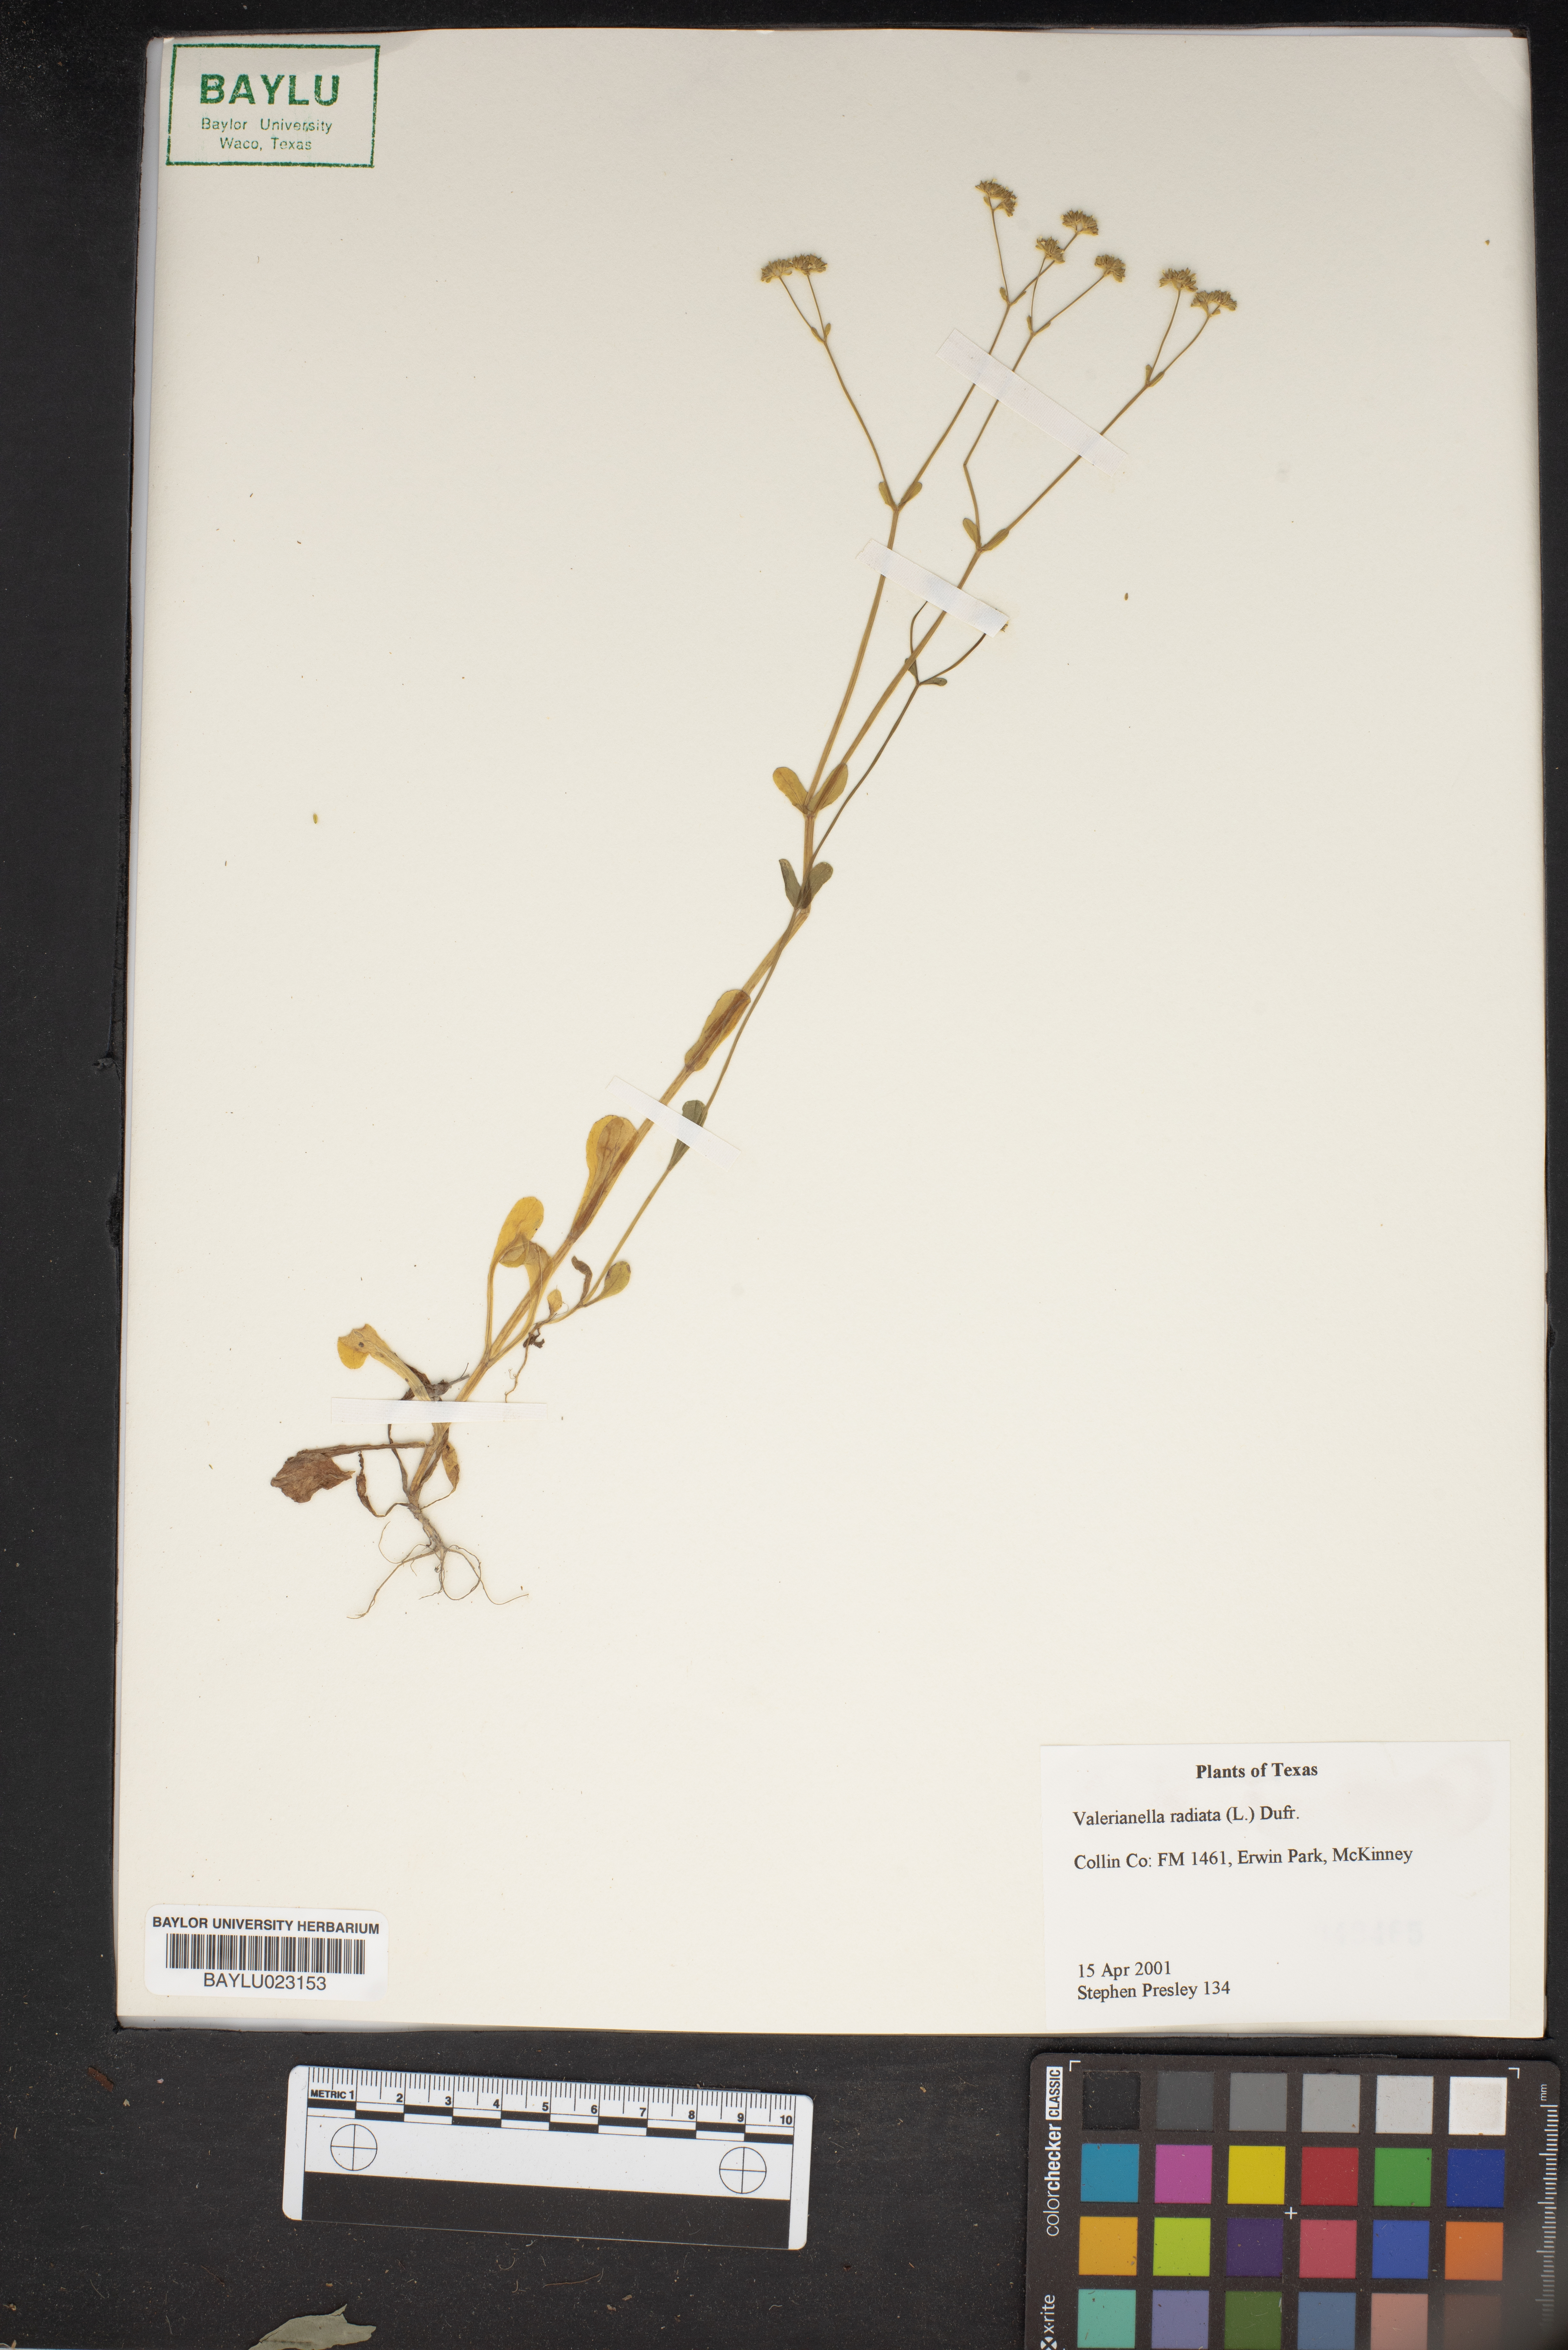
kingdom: Plantae
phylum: Tracheophyta
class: Magnoliopsida
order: Dipsacales
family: Caprifoliaceae
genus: Valerianella
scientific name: Valerianella radiata
